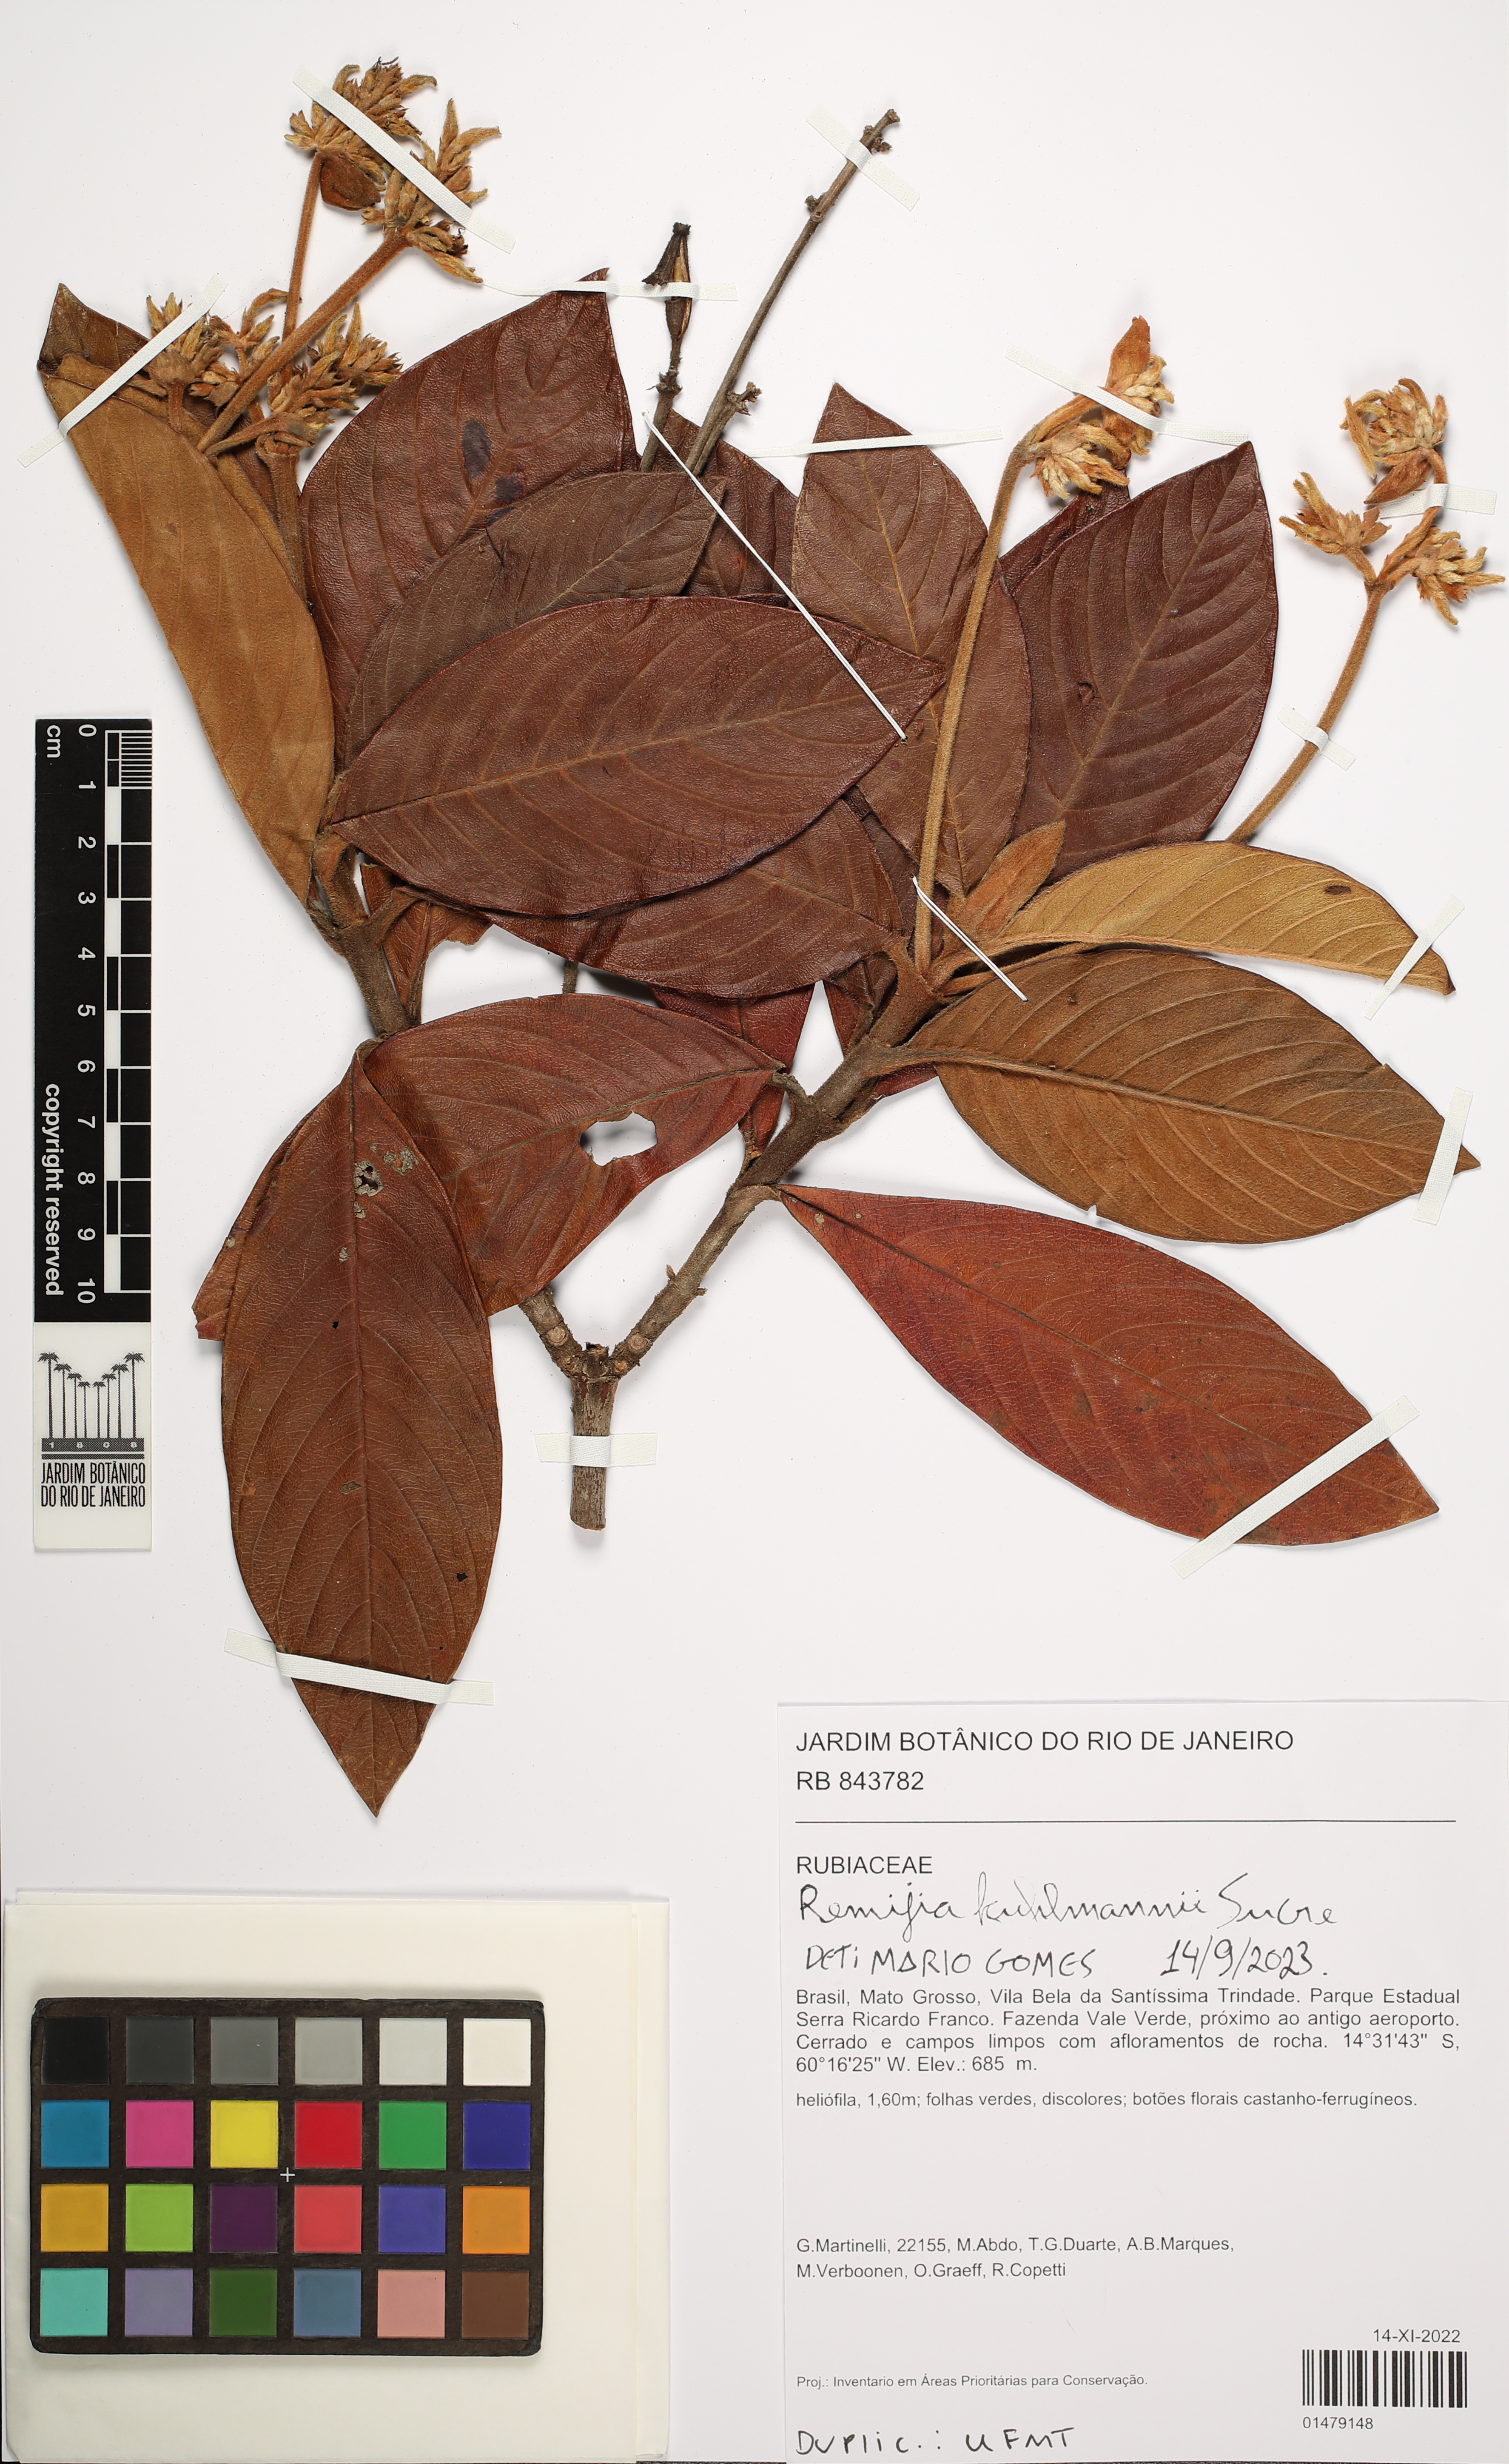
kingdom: Plantae
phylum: Tracheophyta
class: Magnoliopsida
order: Gentianales
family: Rubiaceae
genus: Remijia
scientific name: Remijia kuhlmannii
